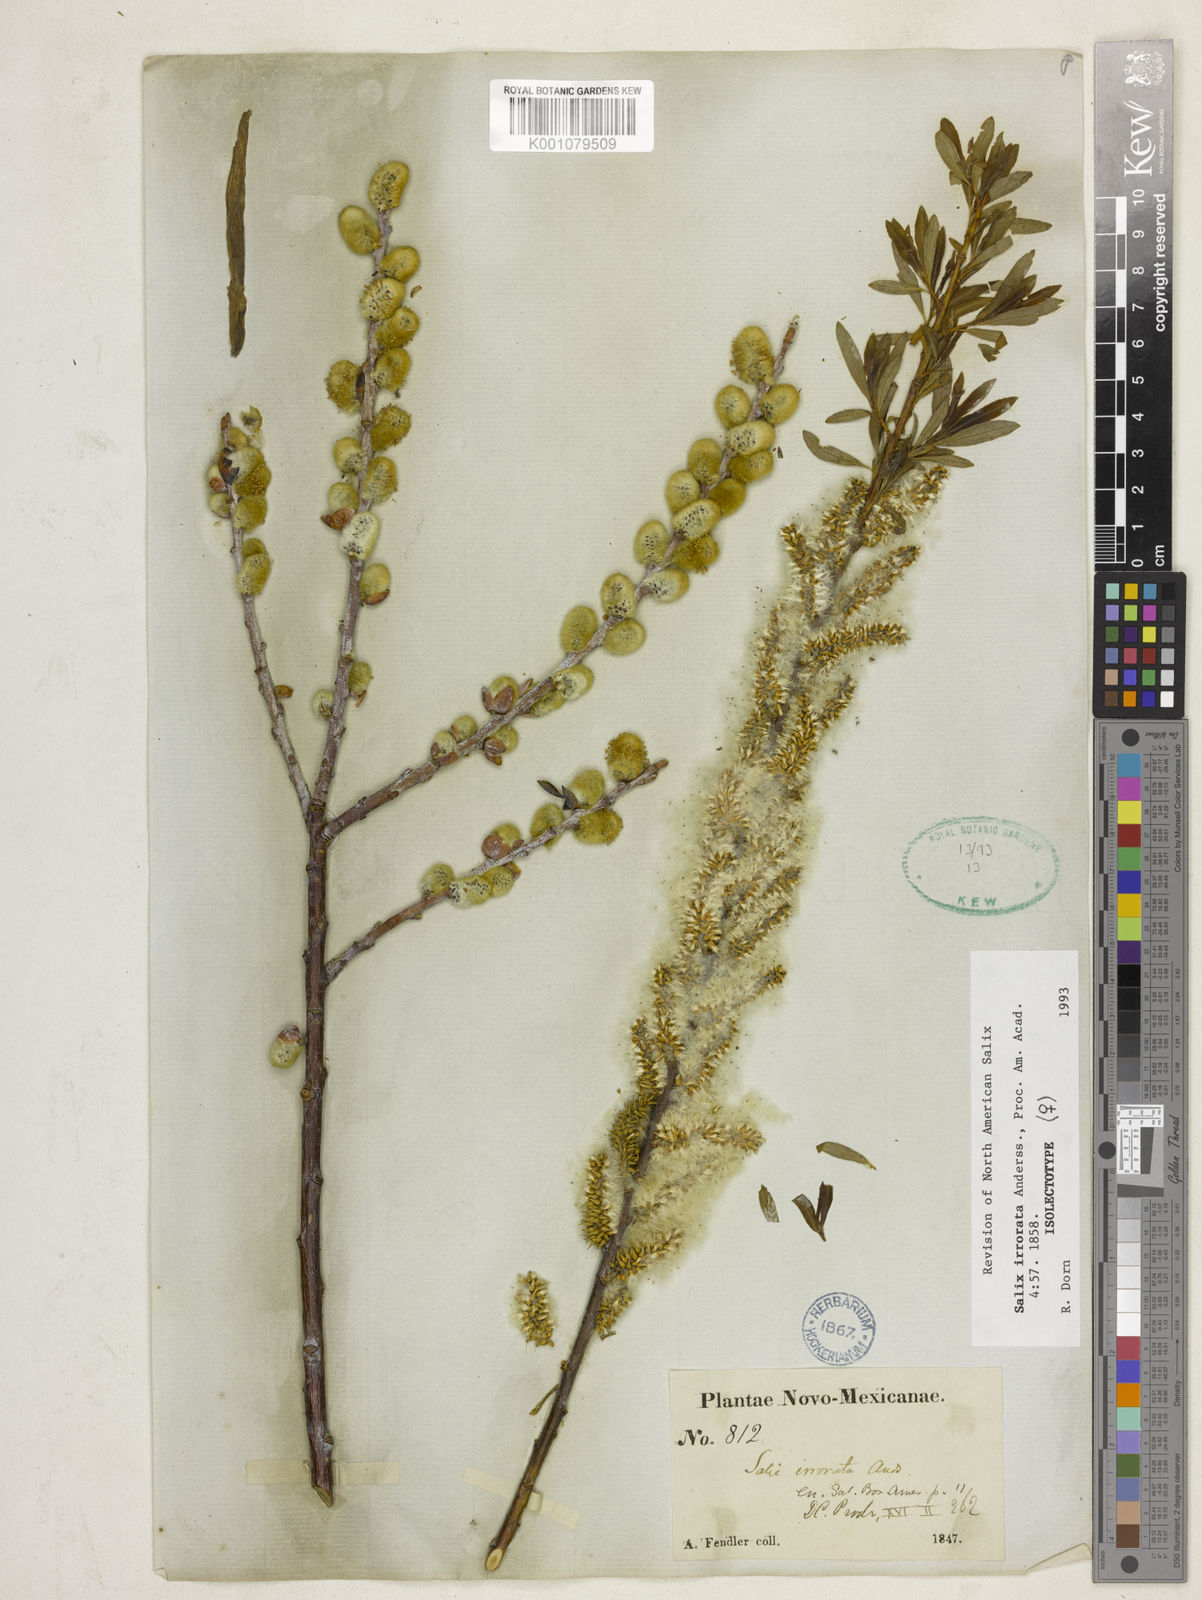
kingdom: Plantae
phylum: Tracheophyta
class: Magnoliopsida
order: Malpighiales
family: Salicaceae
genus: Salix
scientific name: Salix irrorata
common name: Blue-stem willow
